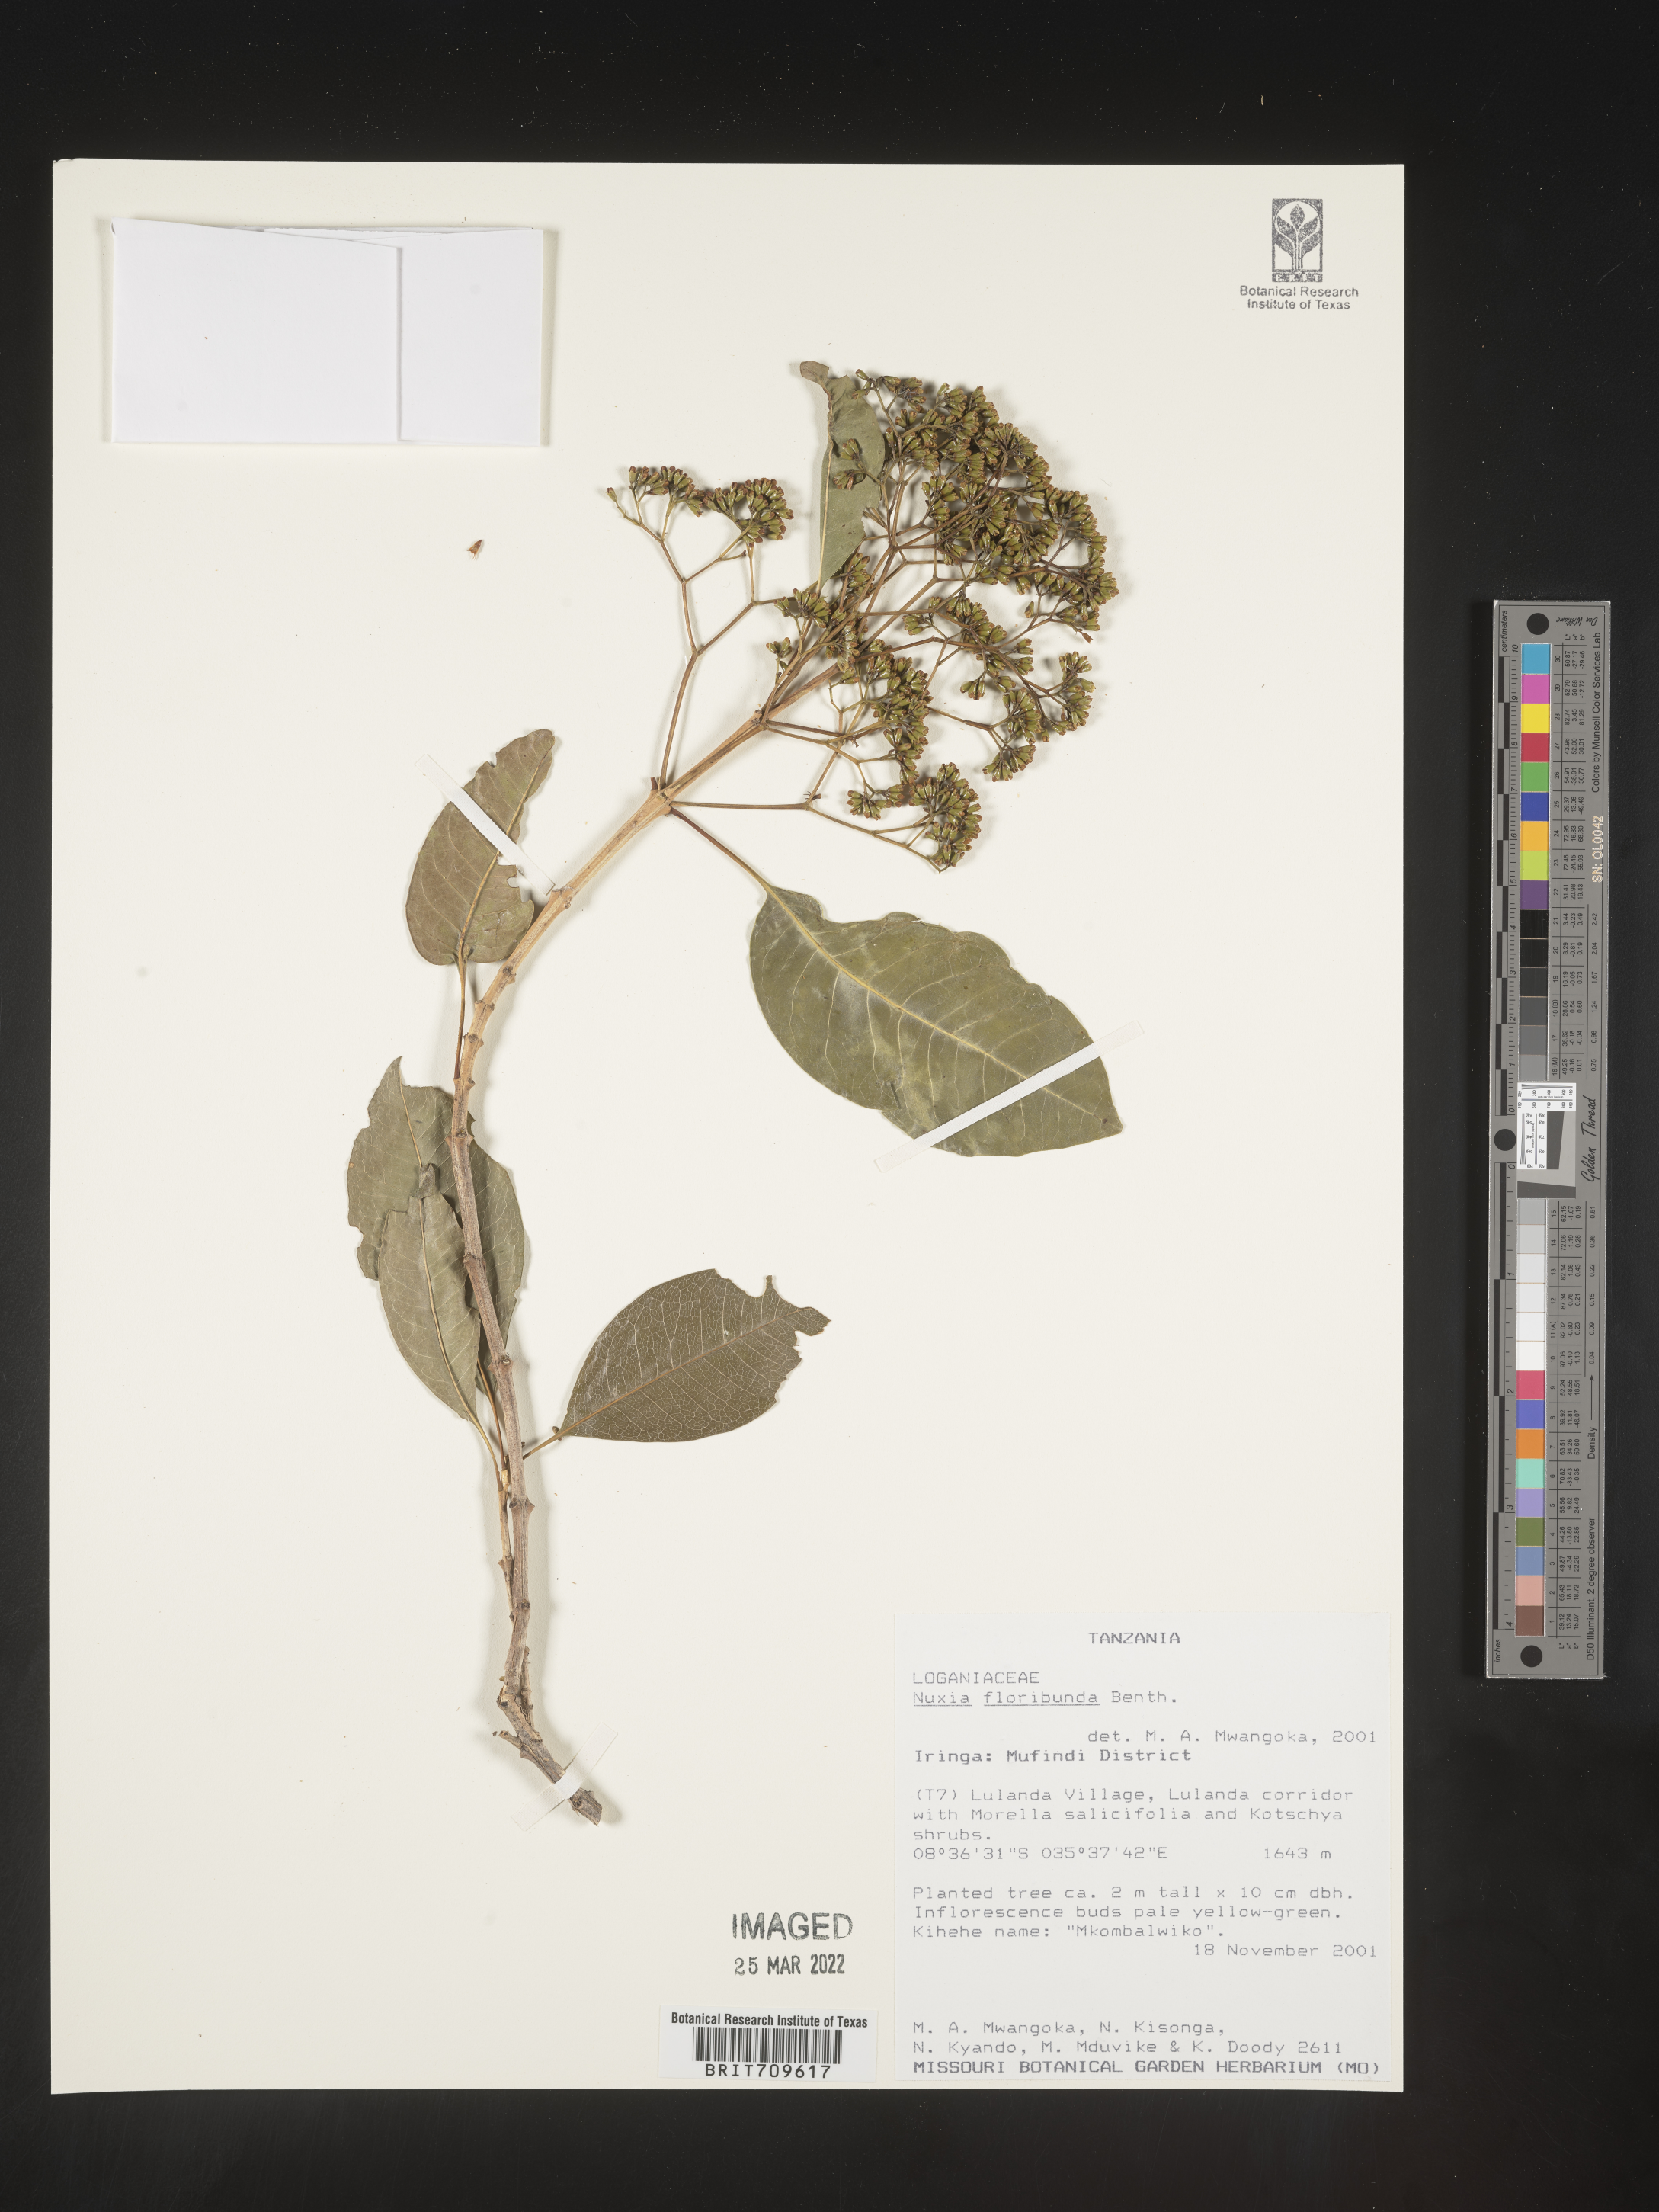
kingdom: Plantae
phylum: Tracheophyta
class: Magnoliopsida
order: Lamiales
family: Stilbaceae
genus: Nuxia
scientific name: Nuxia
